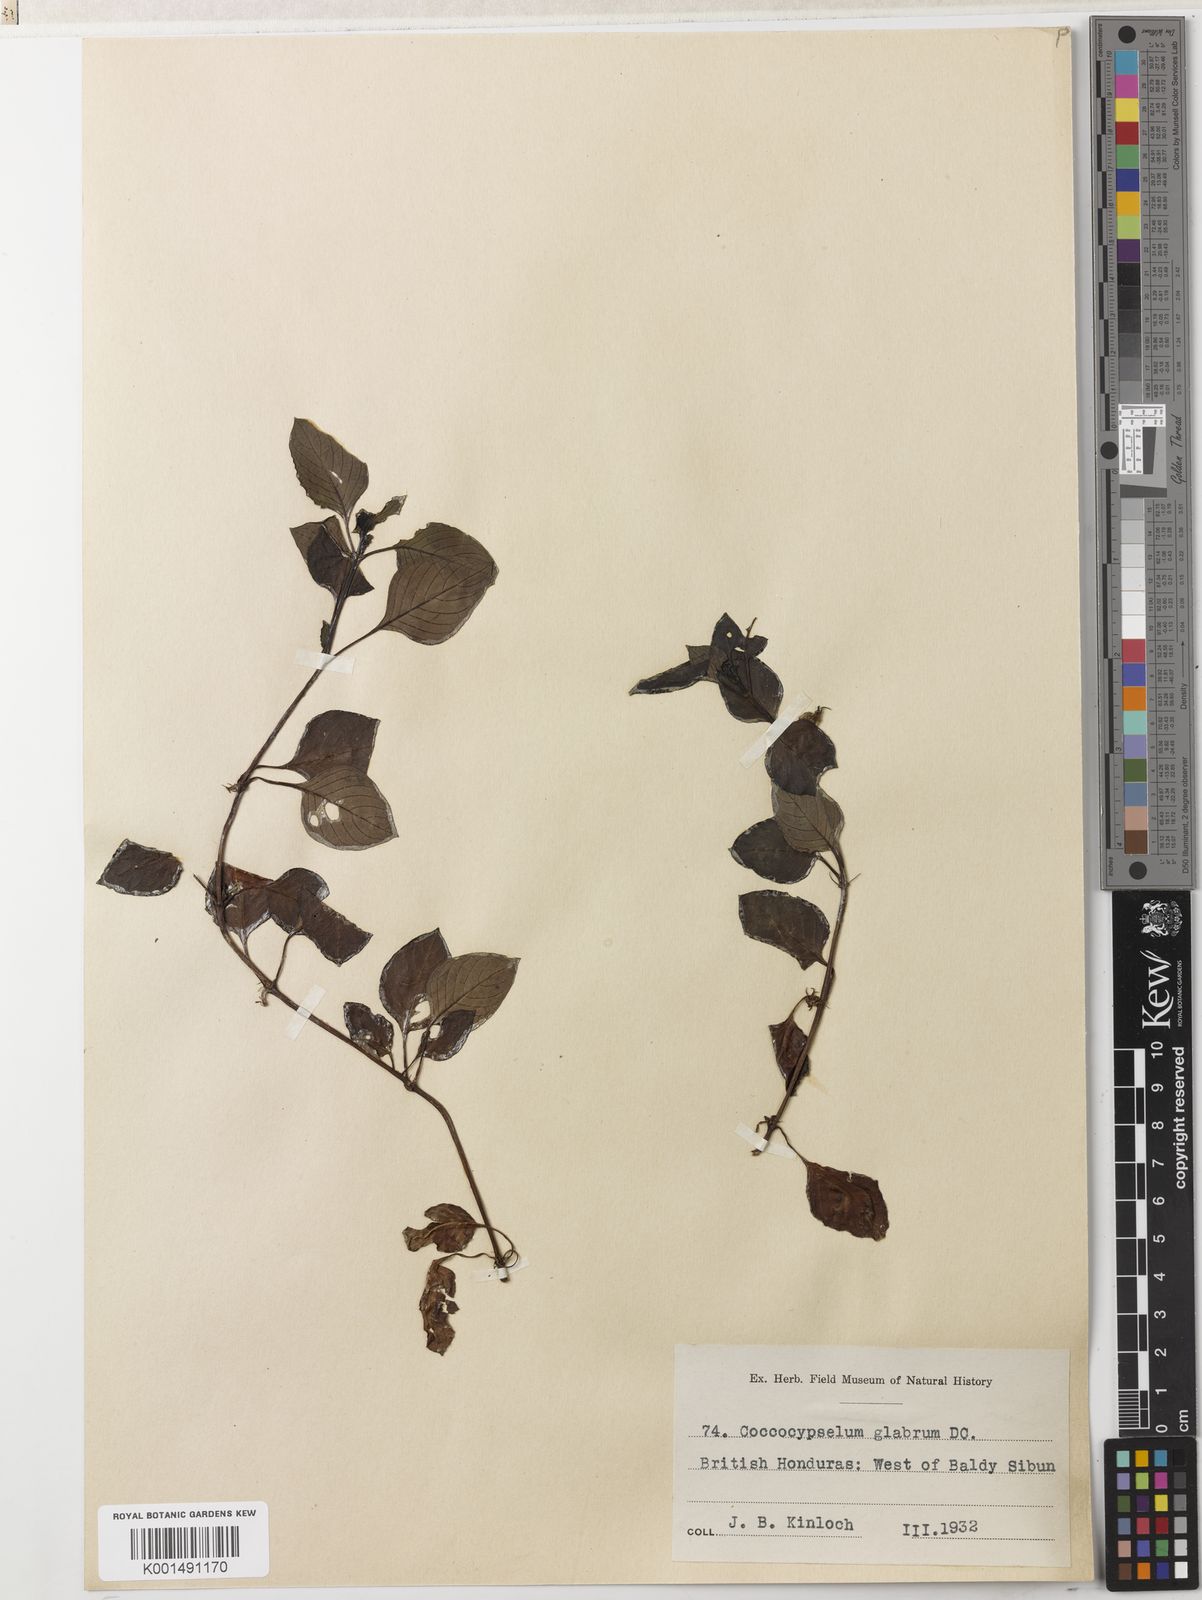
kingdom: Plantae
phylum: Tracheophyta
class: Magnoliopsida
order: Gentianales
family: Rubiaceae
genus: Coccocypselum
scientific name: Coccocypselum guianense
